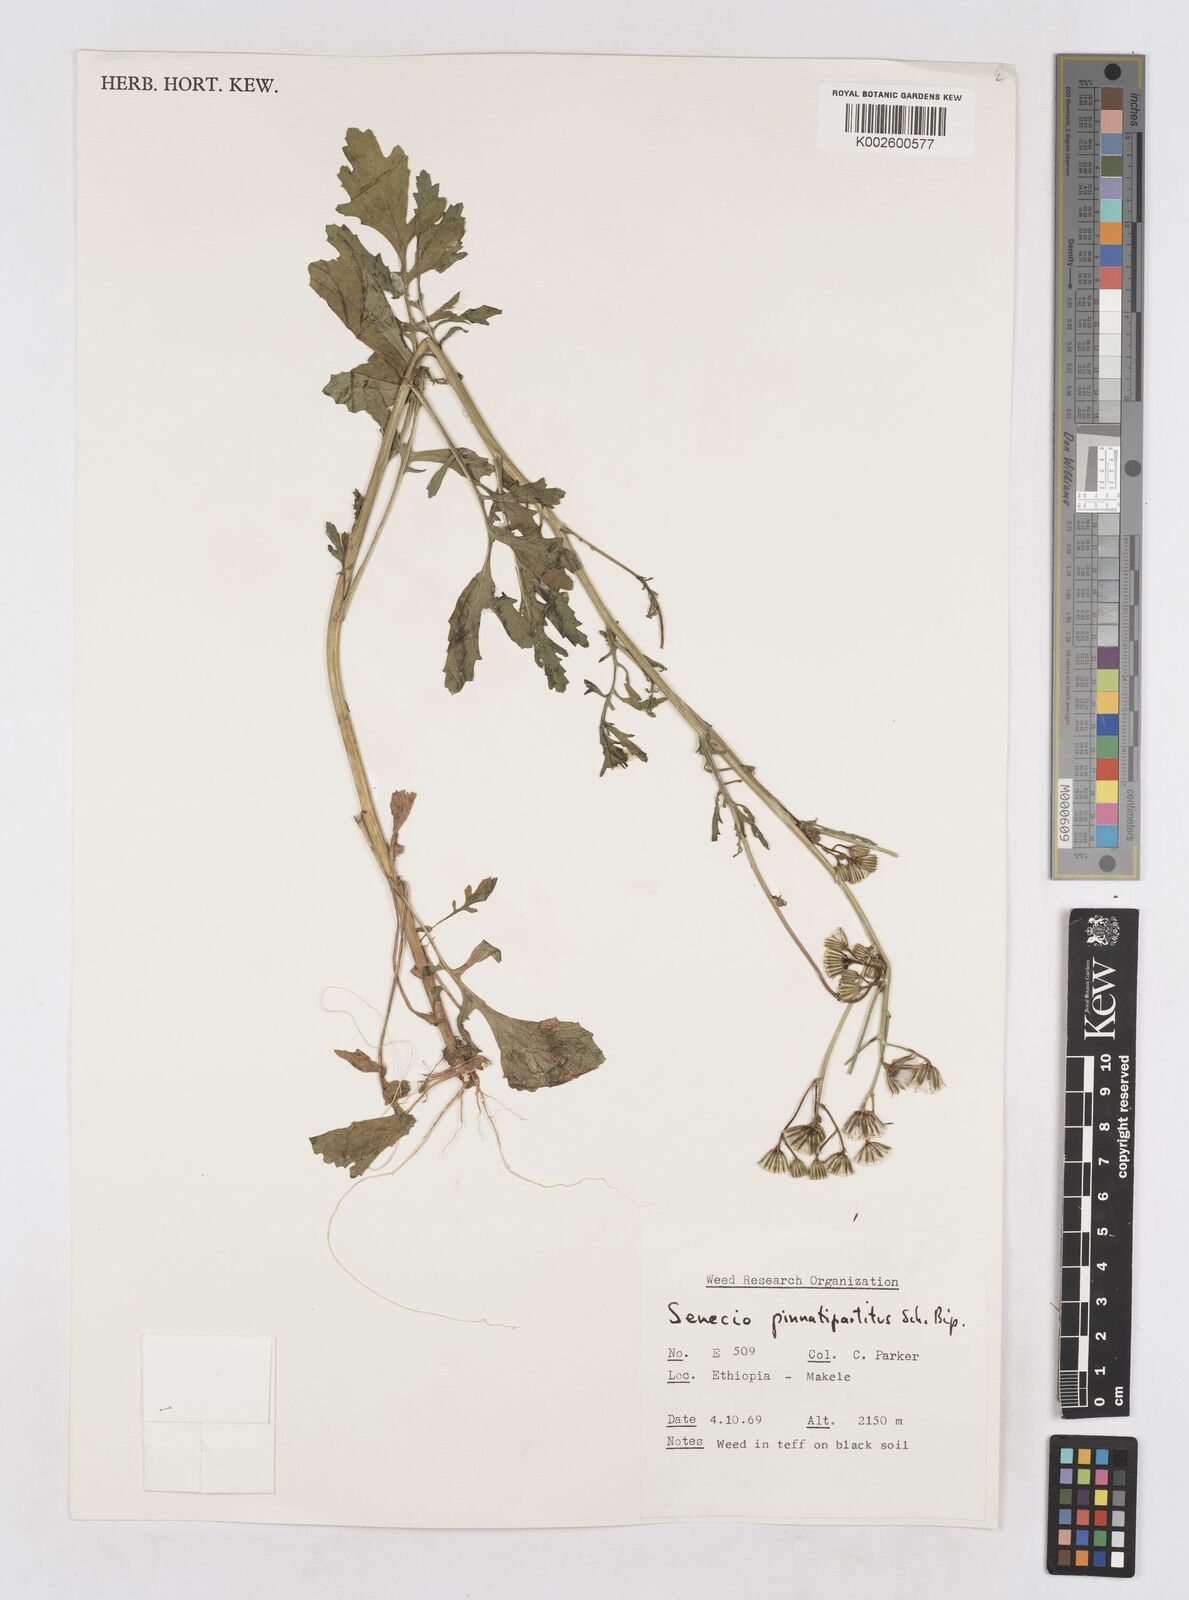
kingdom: Plantae
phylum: Tracheophyta
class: Magnoliopsida
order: Asterales
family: Asteraceae
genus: Senecio
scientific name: Senecio pinnatipartitus
